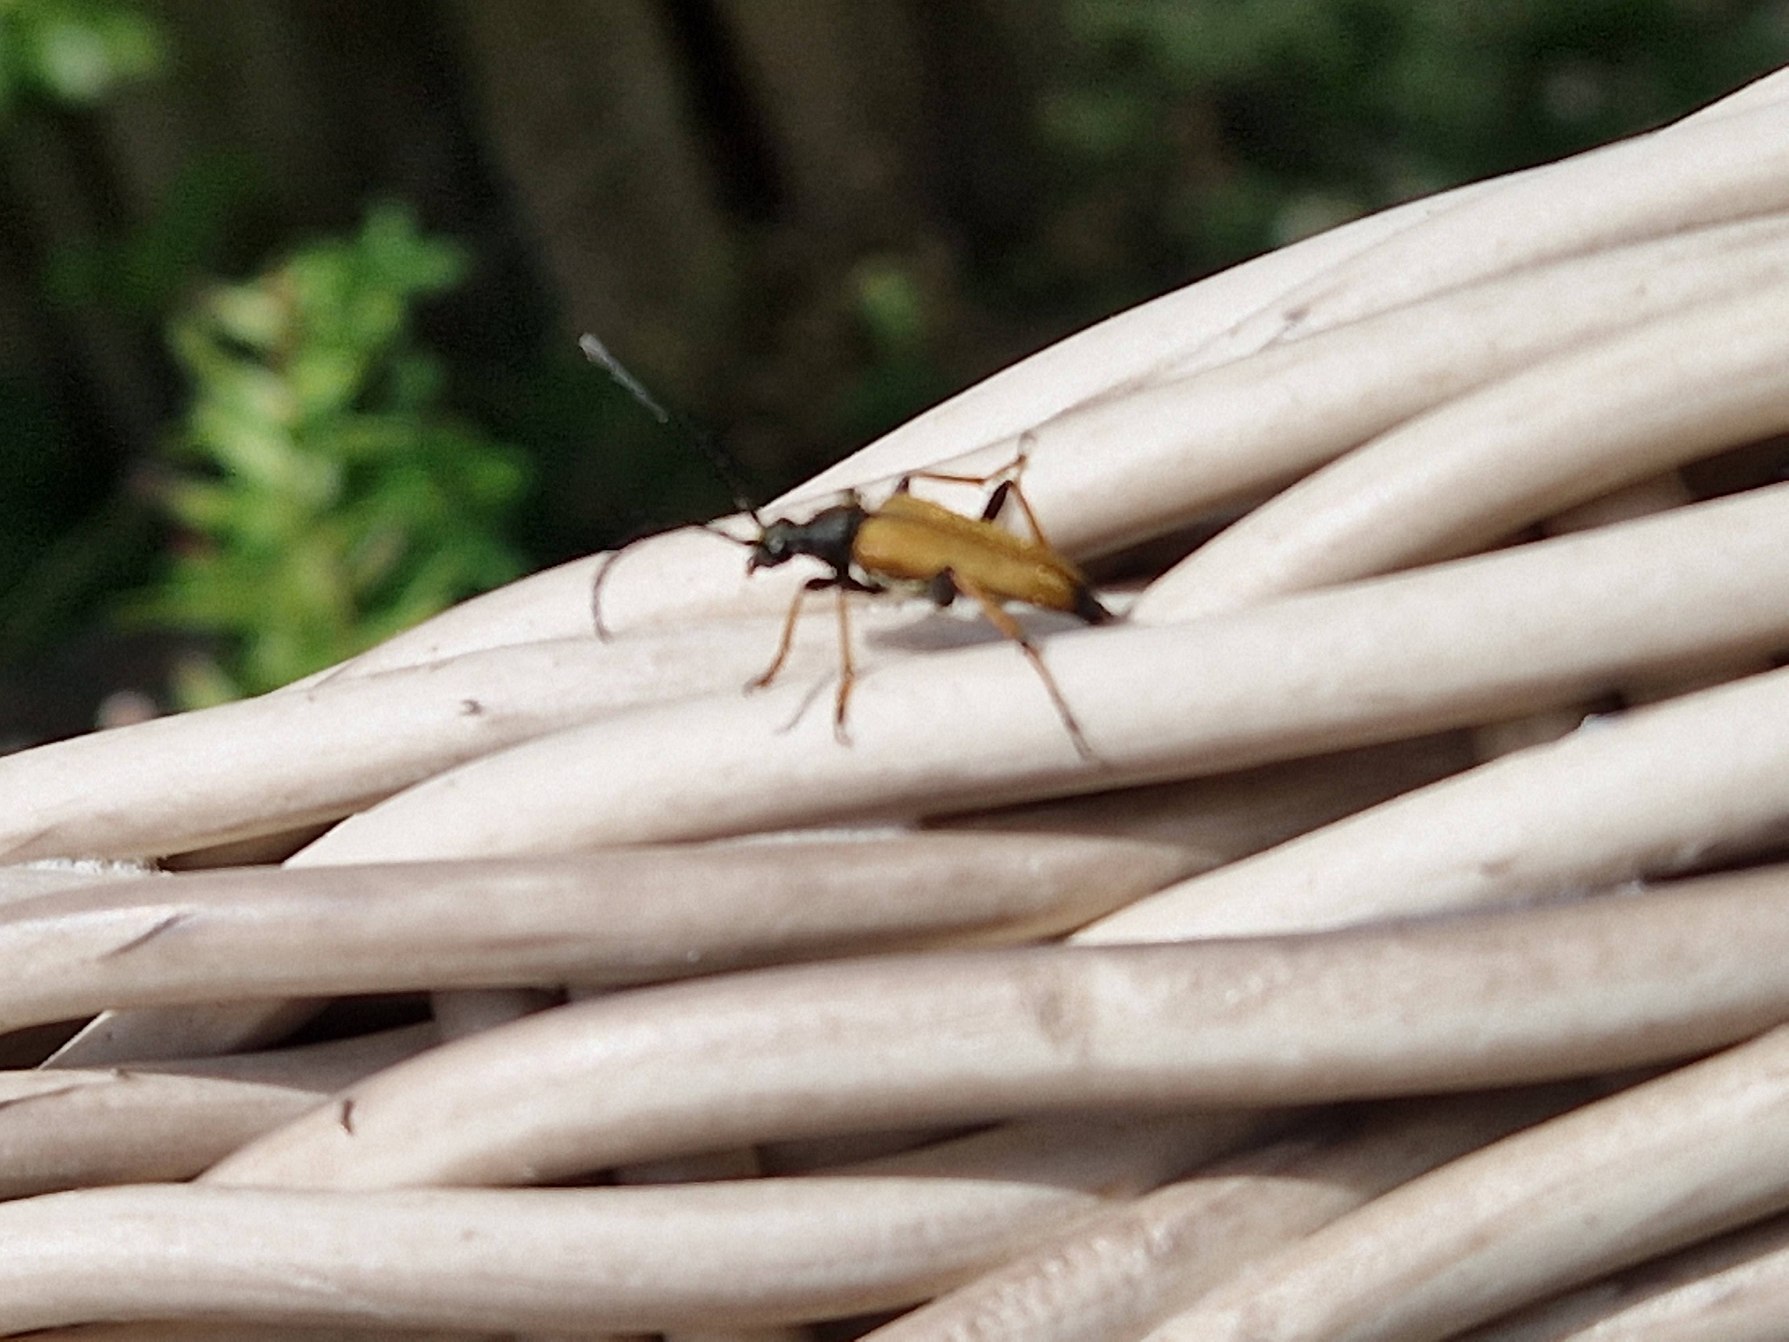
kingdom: Animalia
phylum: Arthropoda
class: Insecta
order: Coleoptera
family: Cerambycidae
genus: Stictoleptura
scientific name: Stictoleptura rubra
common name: Rød blomsterbuk
